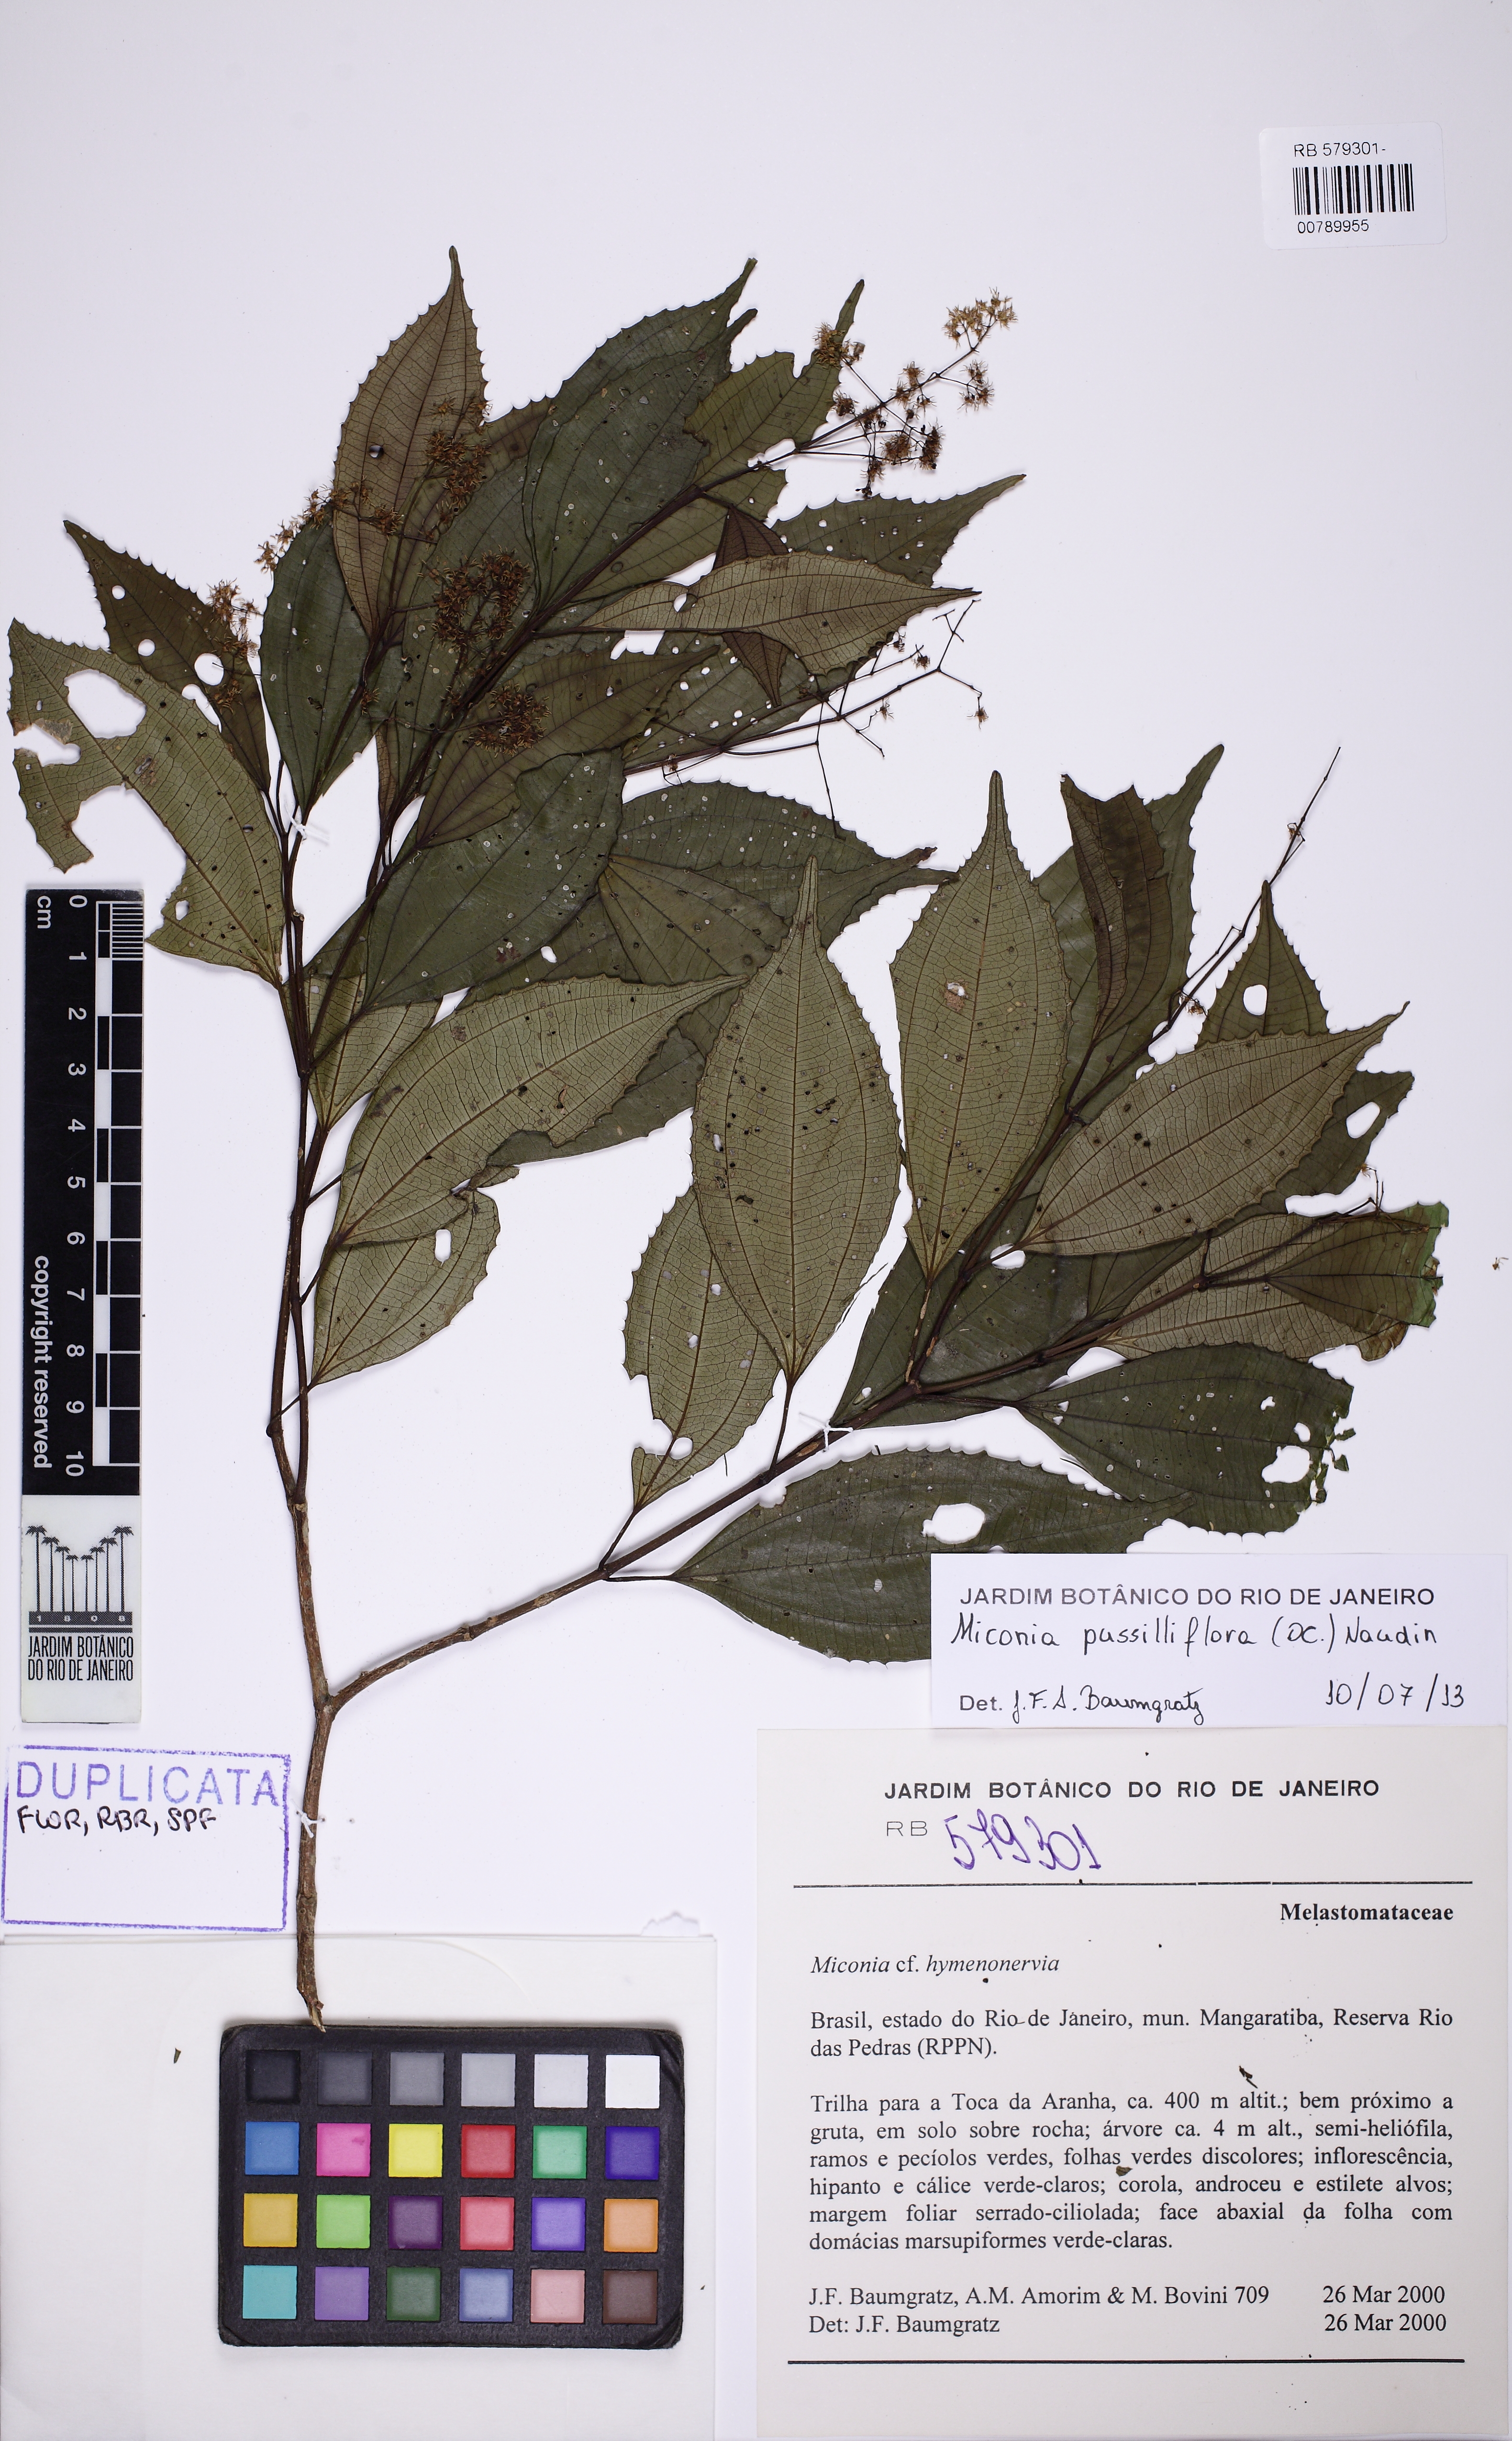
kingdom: Plantae
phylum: Tracheophyta
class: Magnoliopsida
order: Myrtales
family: Melastomataceae
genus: Miconia
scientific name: Miconia pusilliflora
